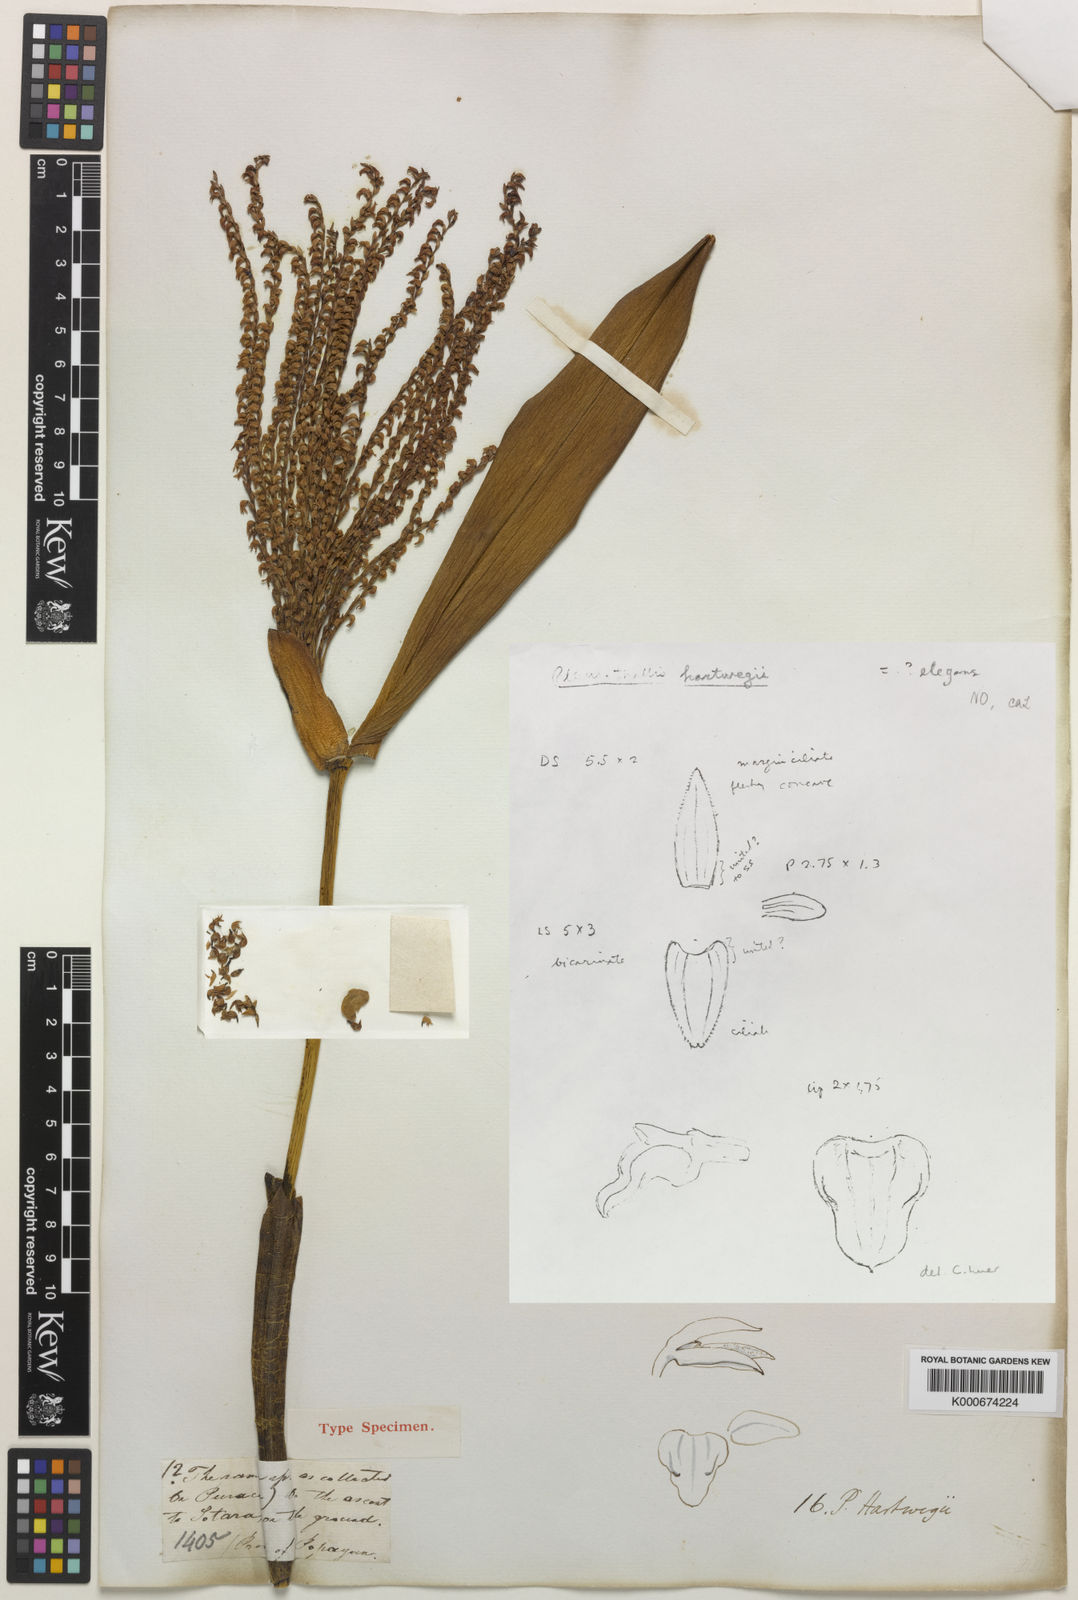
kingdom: Plantae
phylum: Tracheophyta
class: Liliopsida
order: Asparagales
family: Orchidaceae
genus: Pleurothallis
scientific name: Pleurothallis
